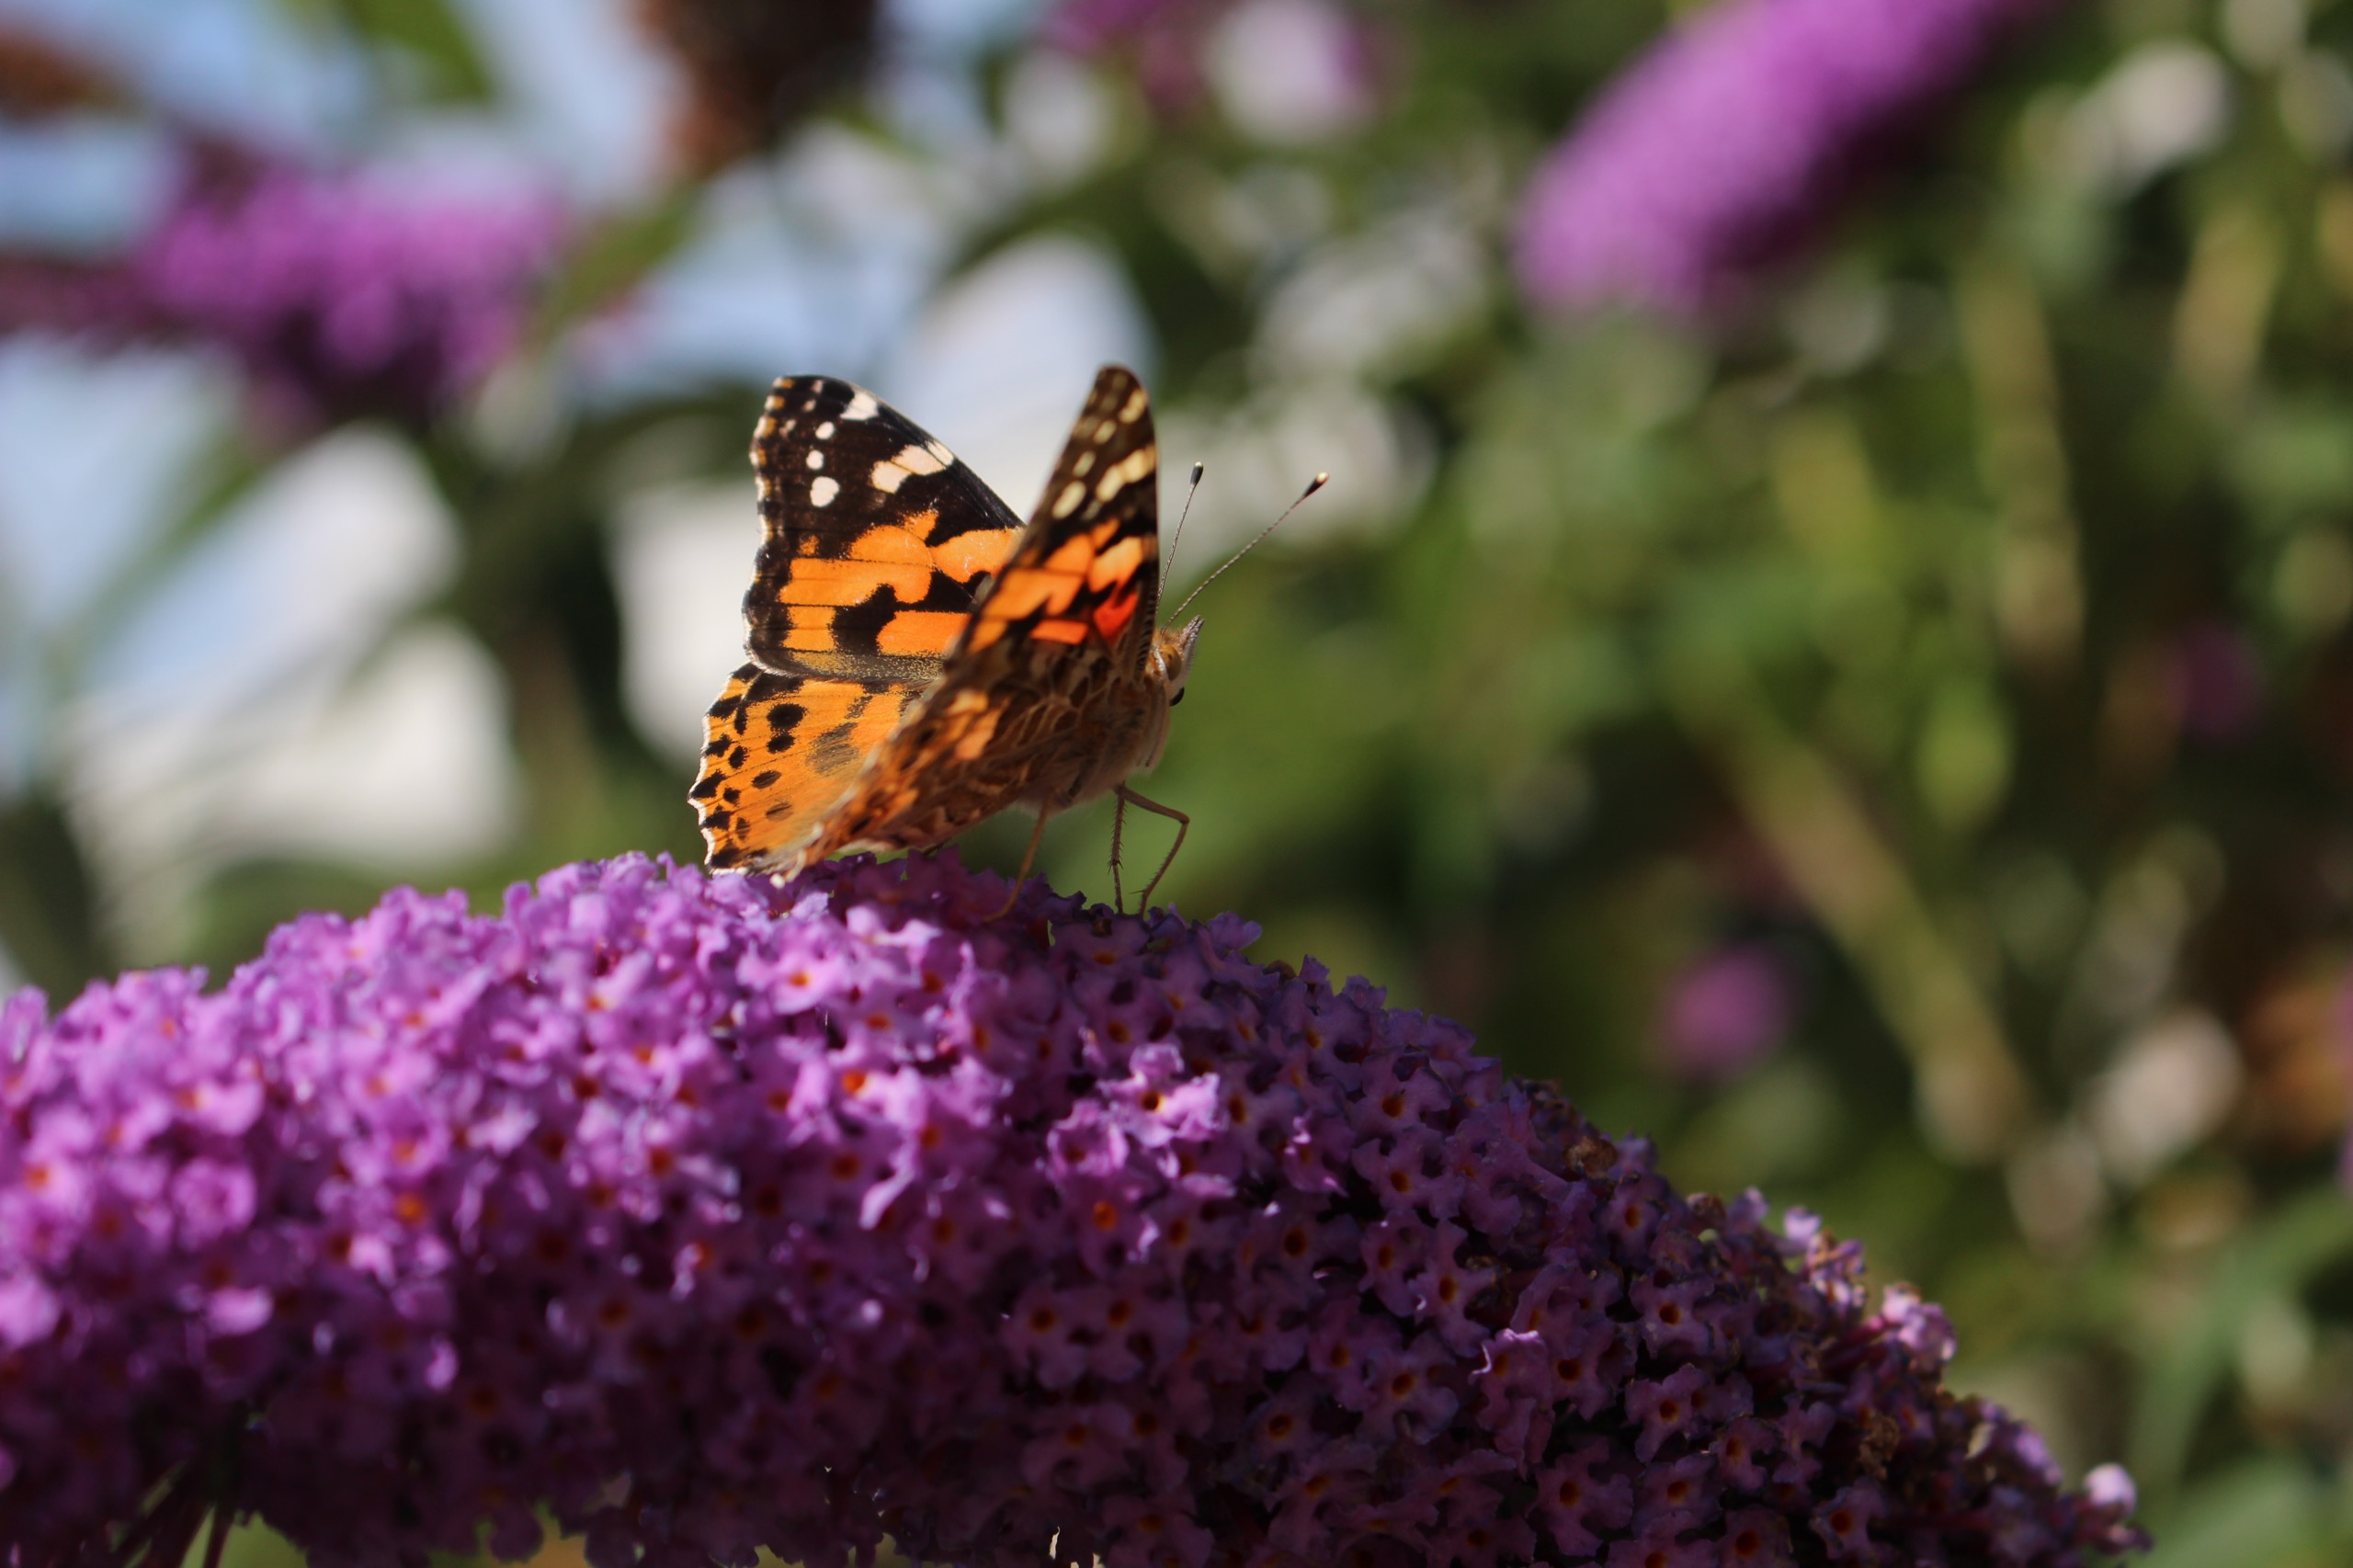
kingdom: Animalia
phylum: Arthropoda
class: Insecta
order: Lepidoptera
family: Nymphalidae
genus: Vanessa
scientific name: Vanessa cardui
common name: Tidselsommerfugl
